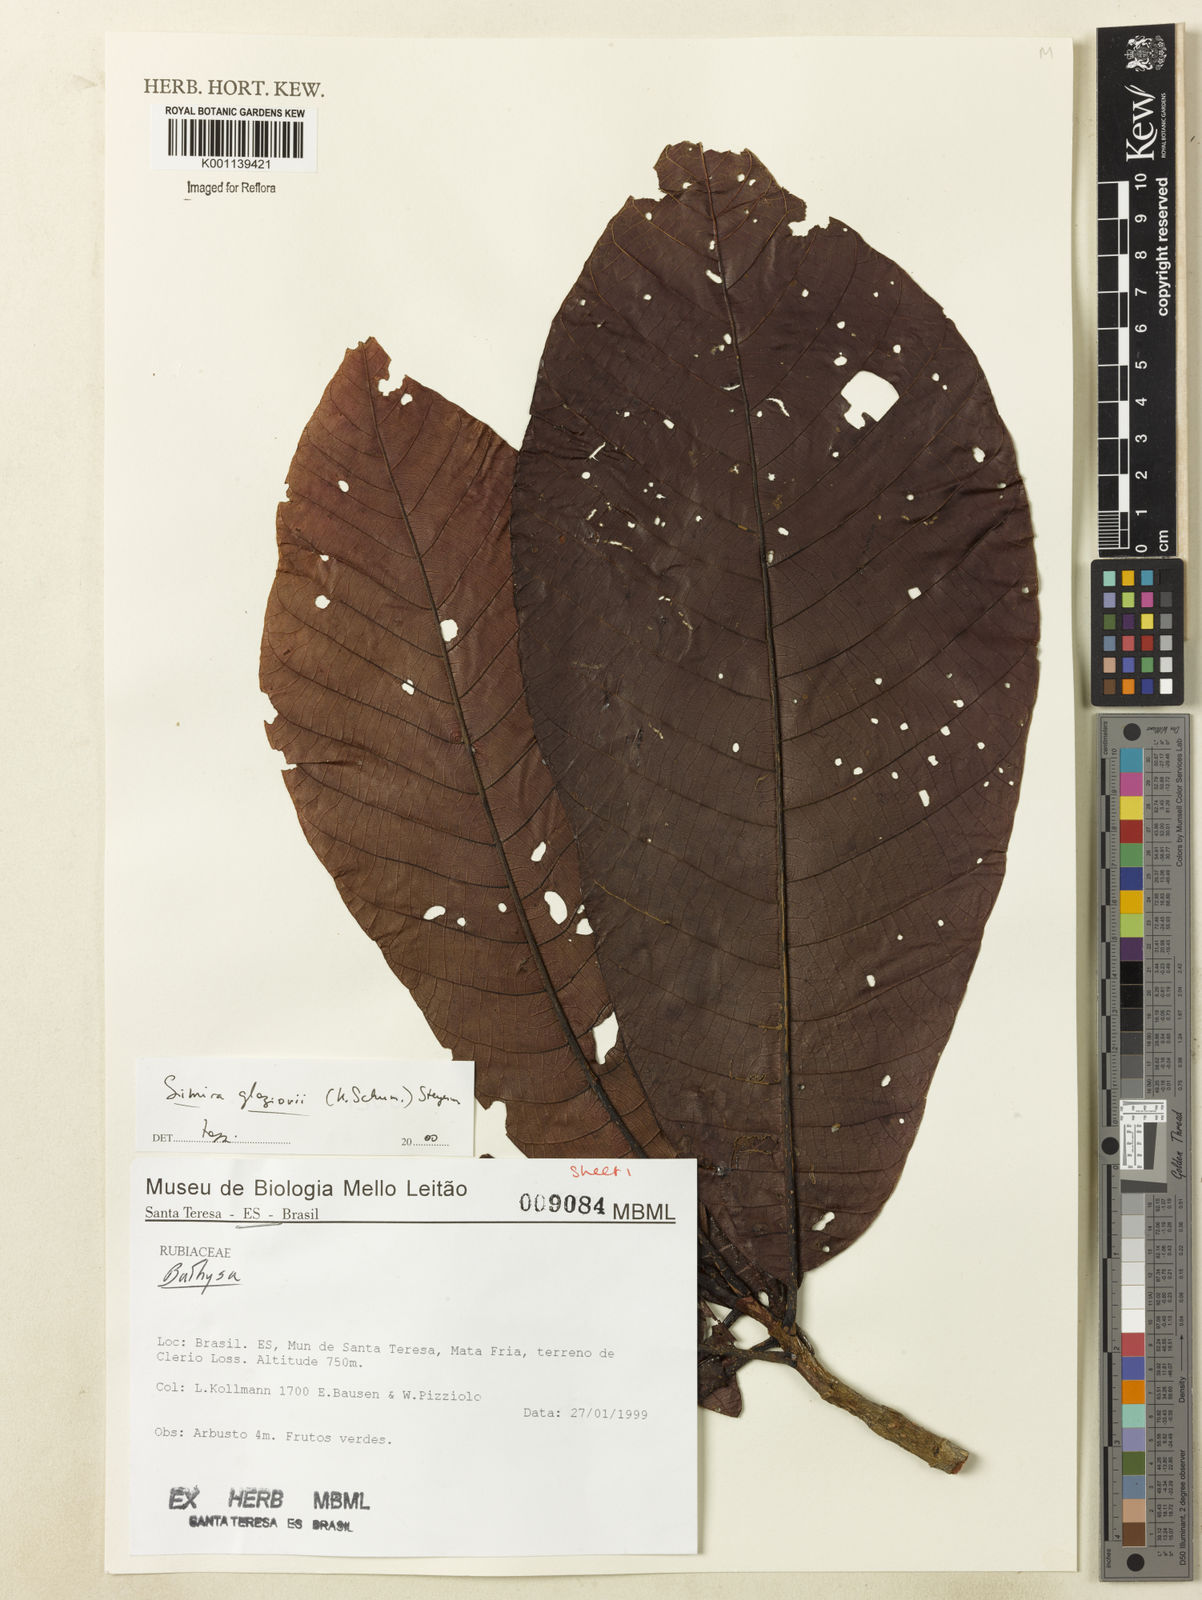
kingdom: Plantae
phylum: Tracheophyta
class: Magnoliopsida
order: Gentianales
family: Rubiaceae
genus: Simira
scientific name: Simira alba
